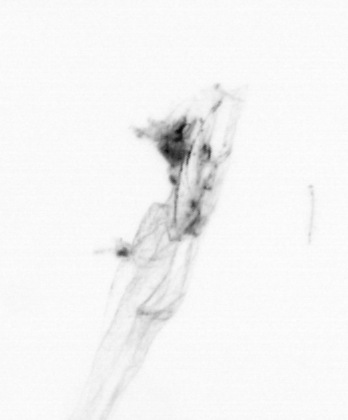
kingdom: Chromista
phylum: Ochrophyta
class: Bacillariophyceae
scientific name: Bacillariophyceae
